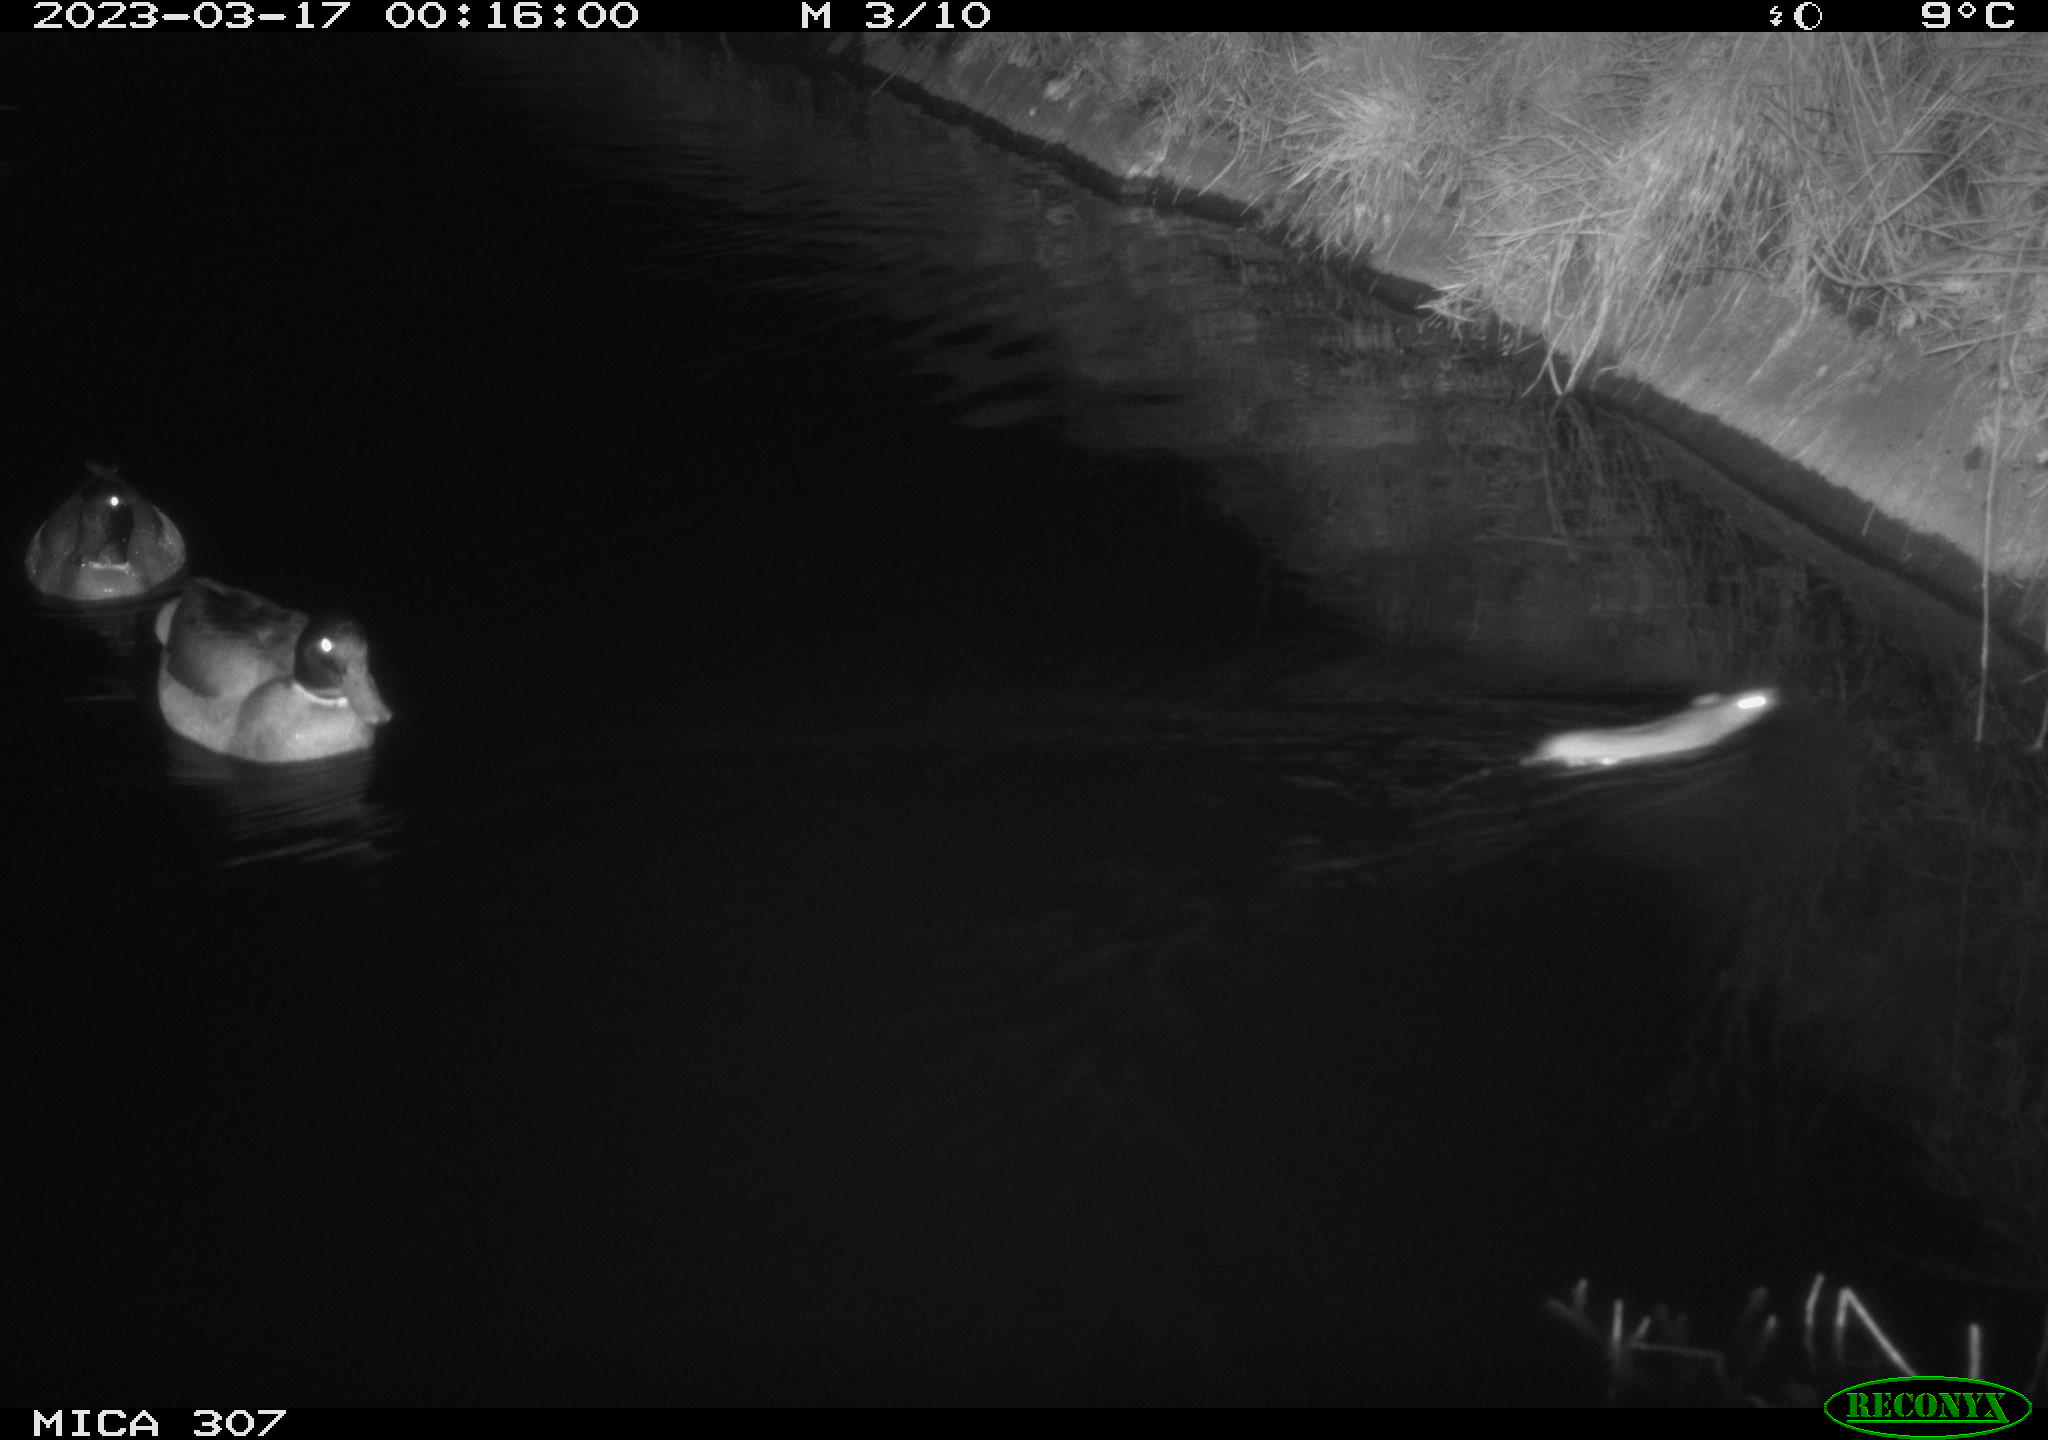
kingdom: Animalia
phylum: Chordata
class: Mammalia
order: Rodentia
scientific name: Rodentia
